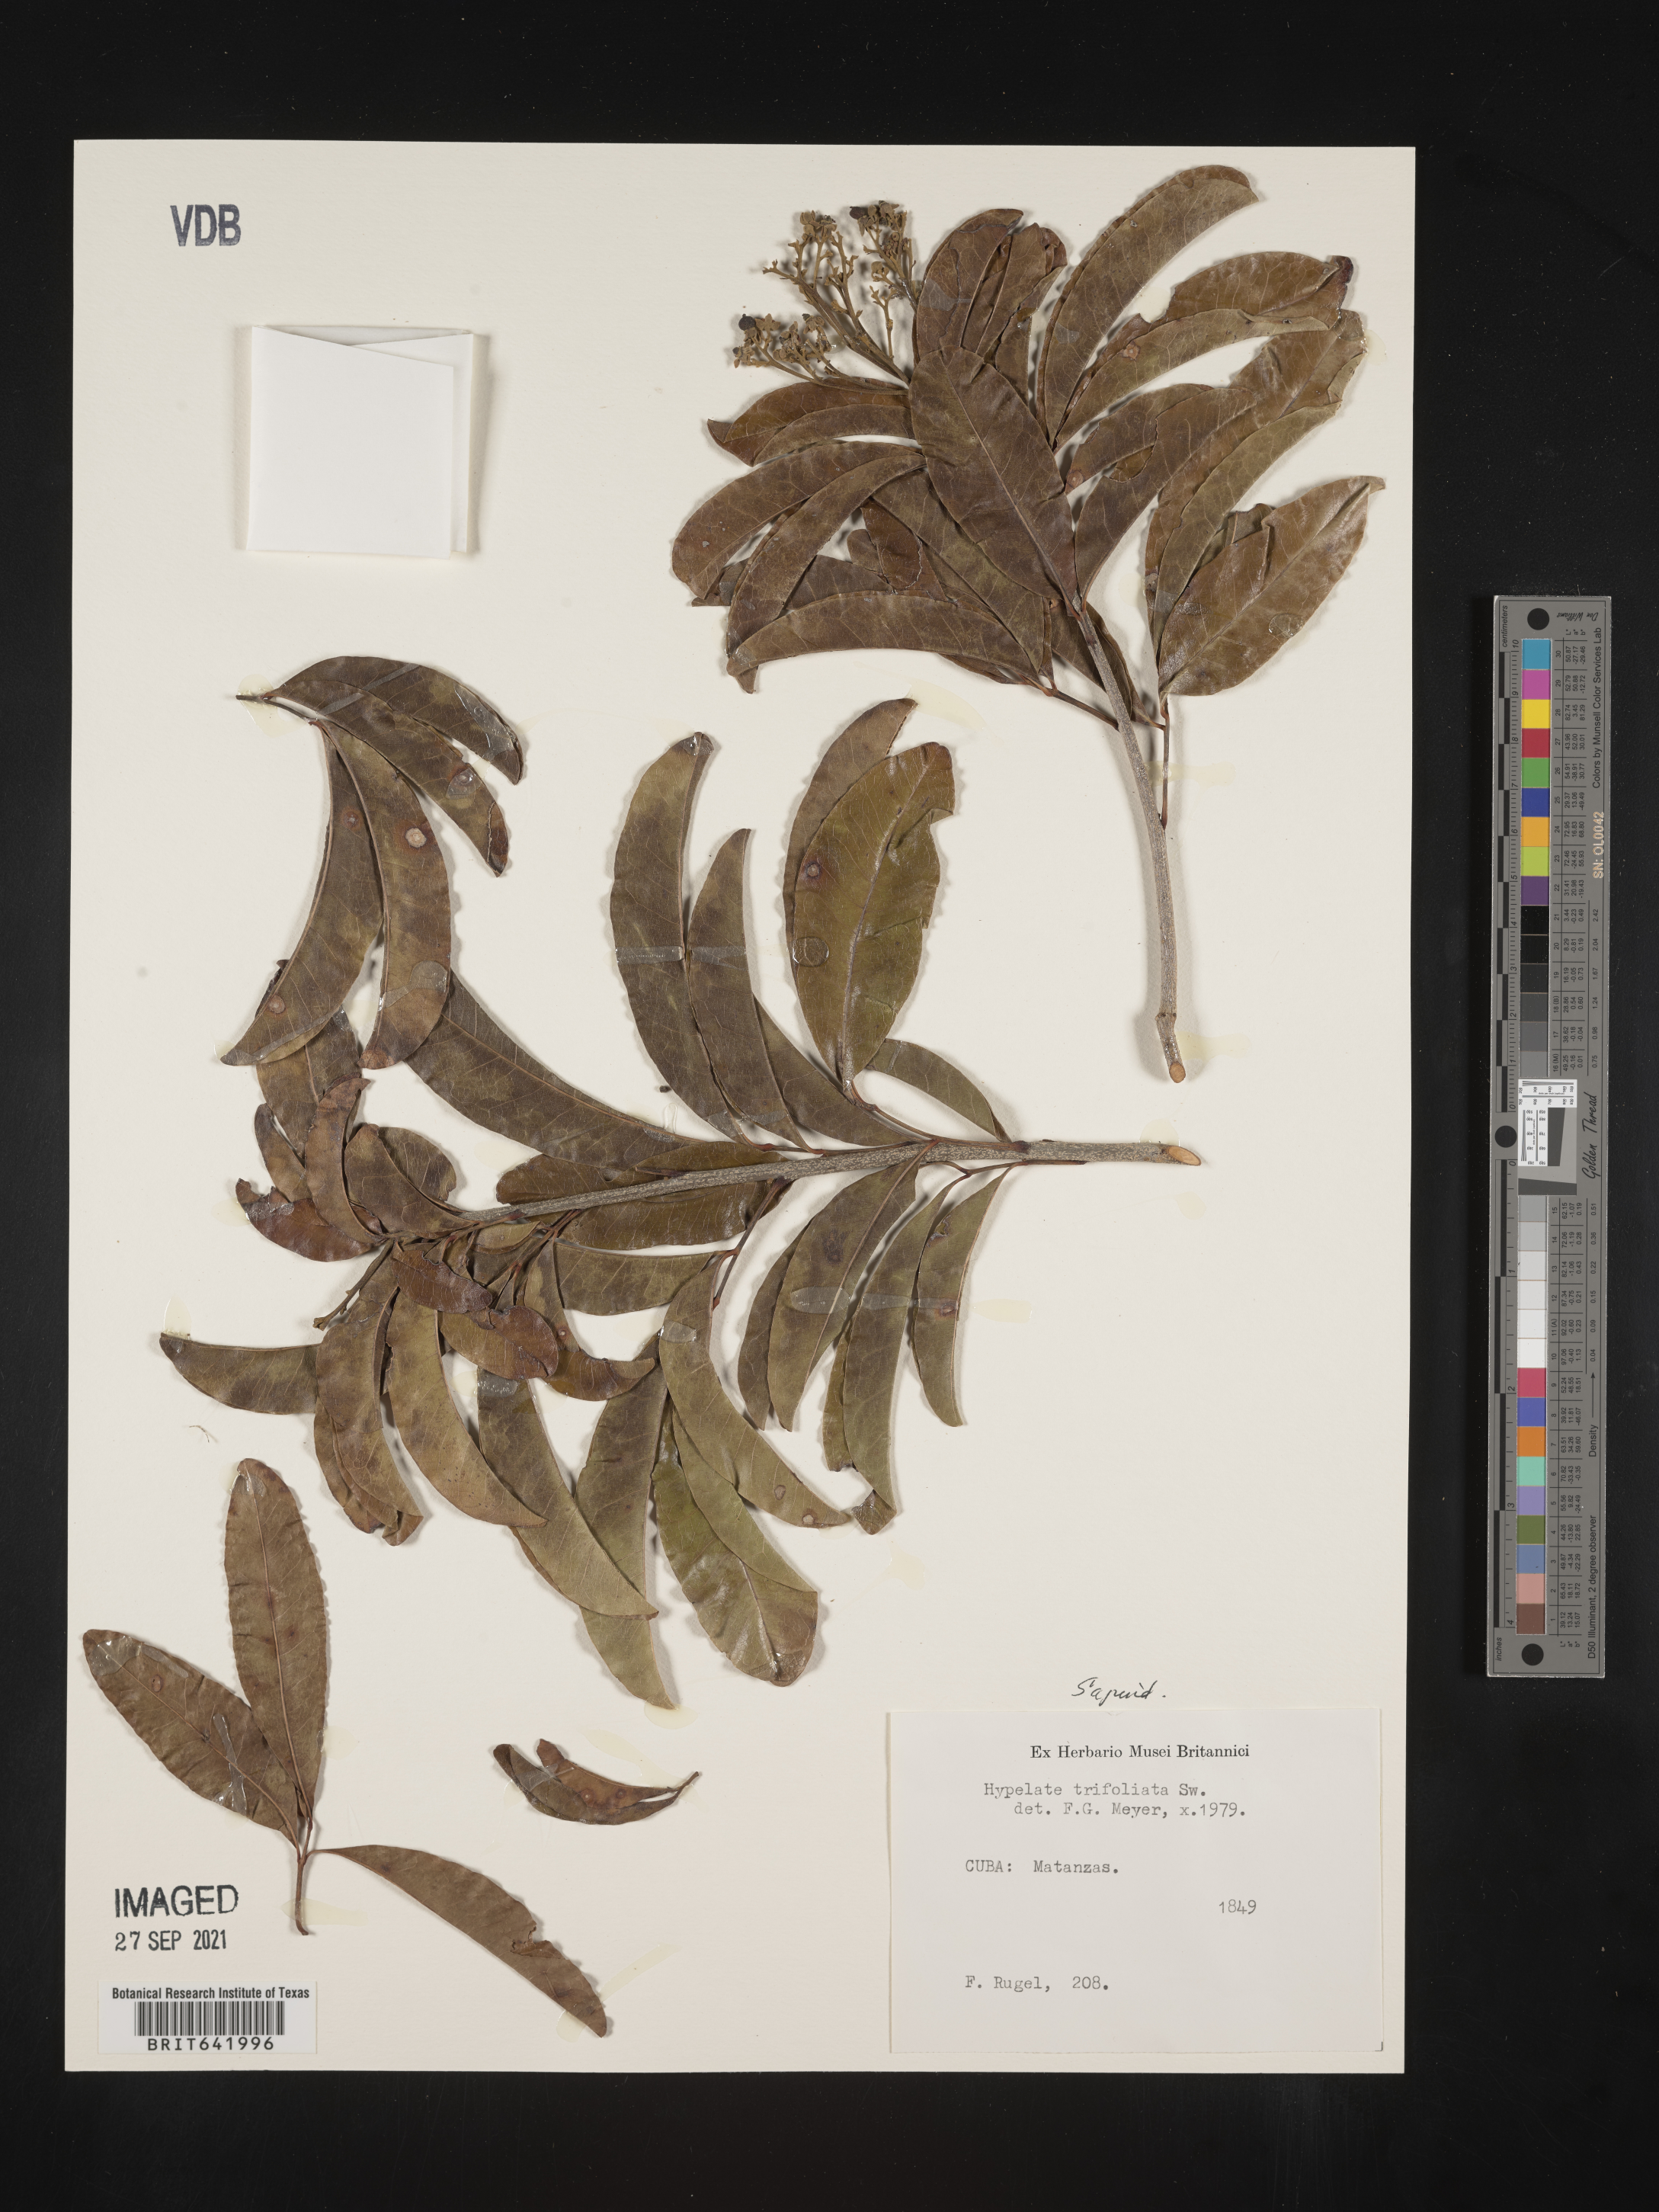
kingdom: Plantae
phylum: Tracheophyta
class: Magnoliopsida
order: Sapindales
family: Sapindaceae
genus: Hypelate
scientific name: Hypelate
